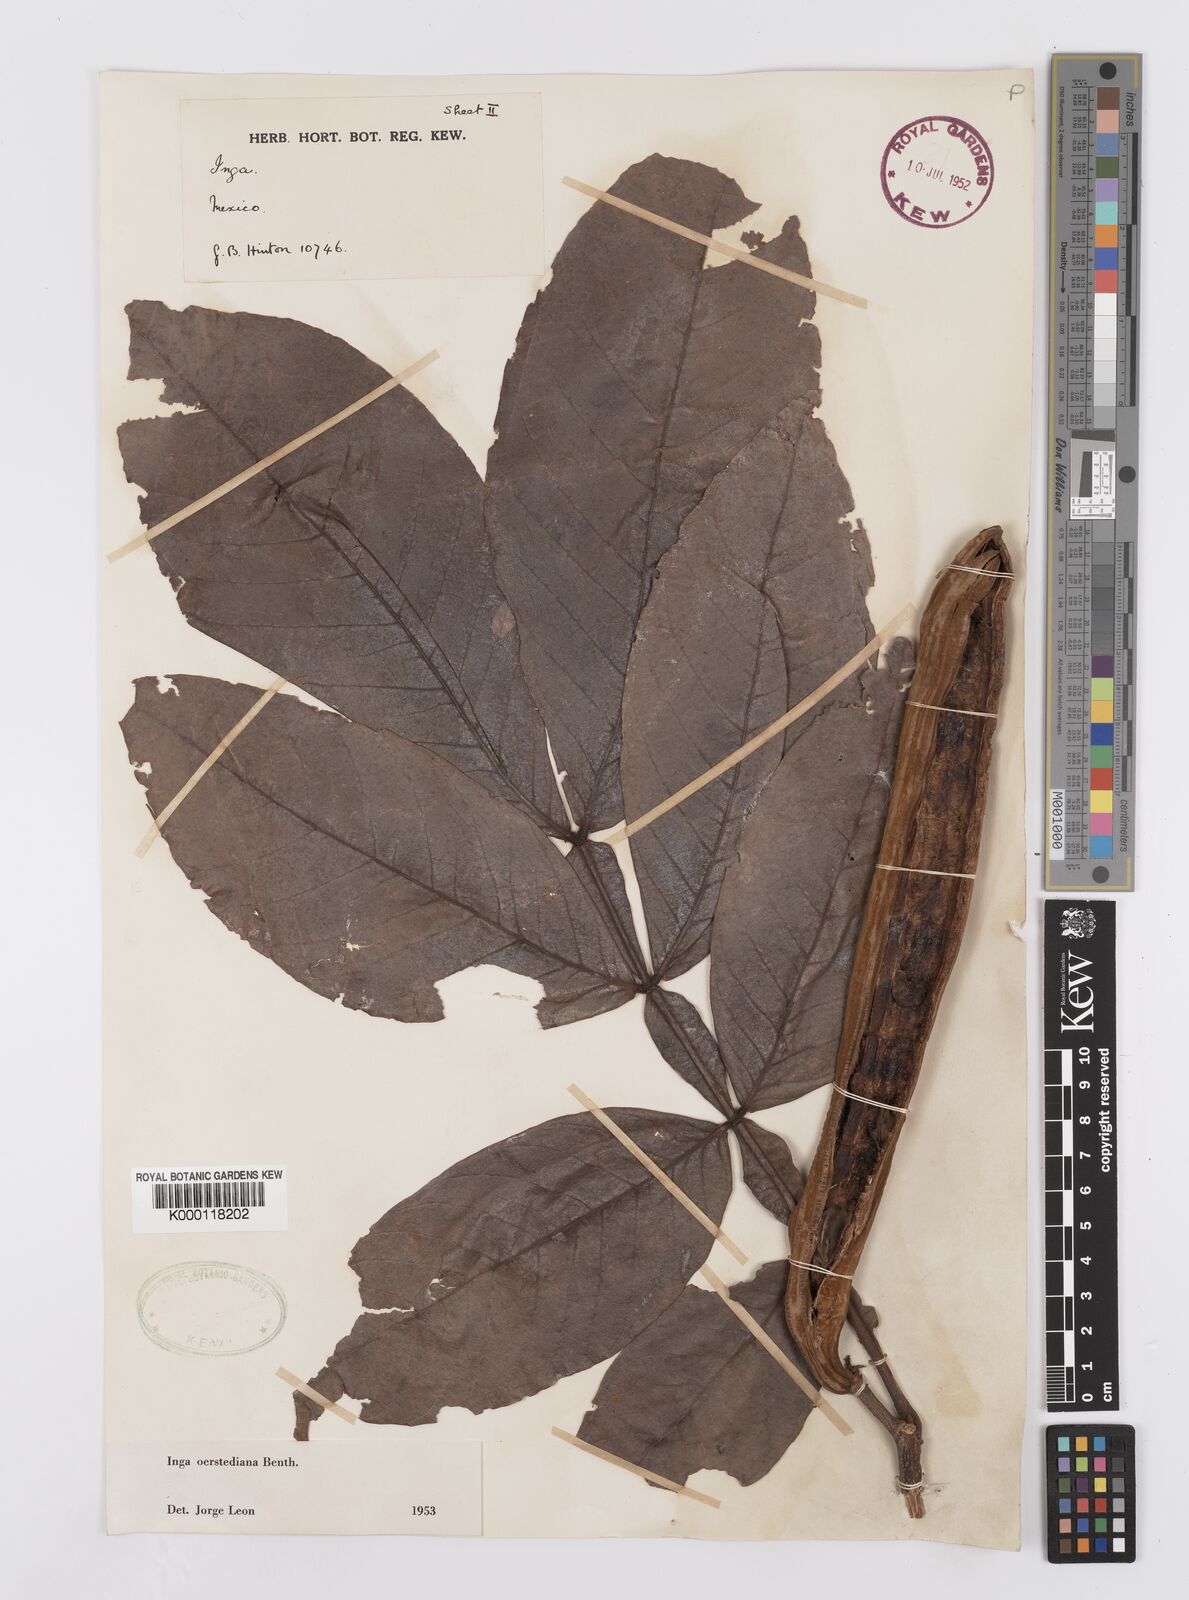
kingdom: Plantae
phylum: Tracheophyta
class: Magnoliopsida
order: Fabales
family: Fabaceae
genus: Inga
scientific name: Inga oerstediana
